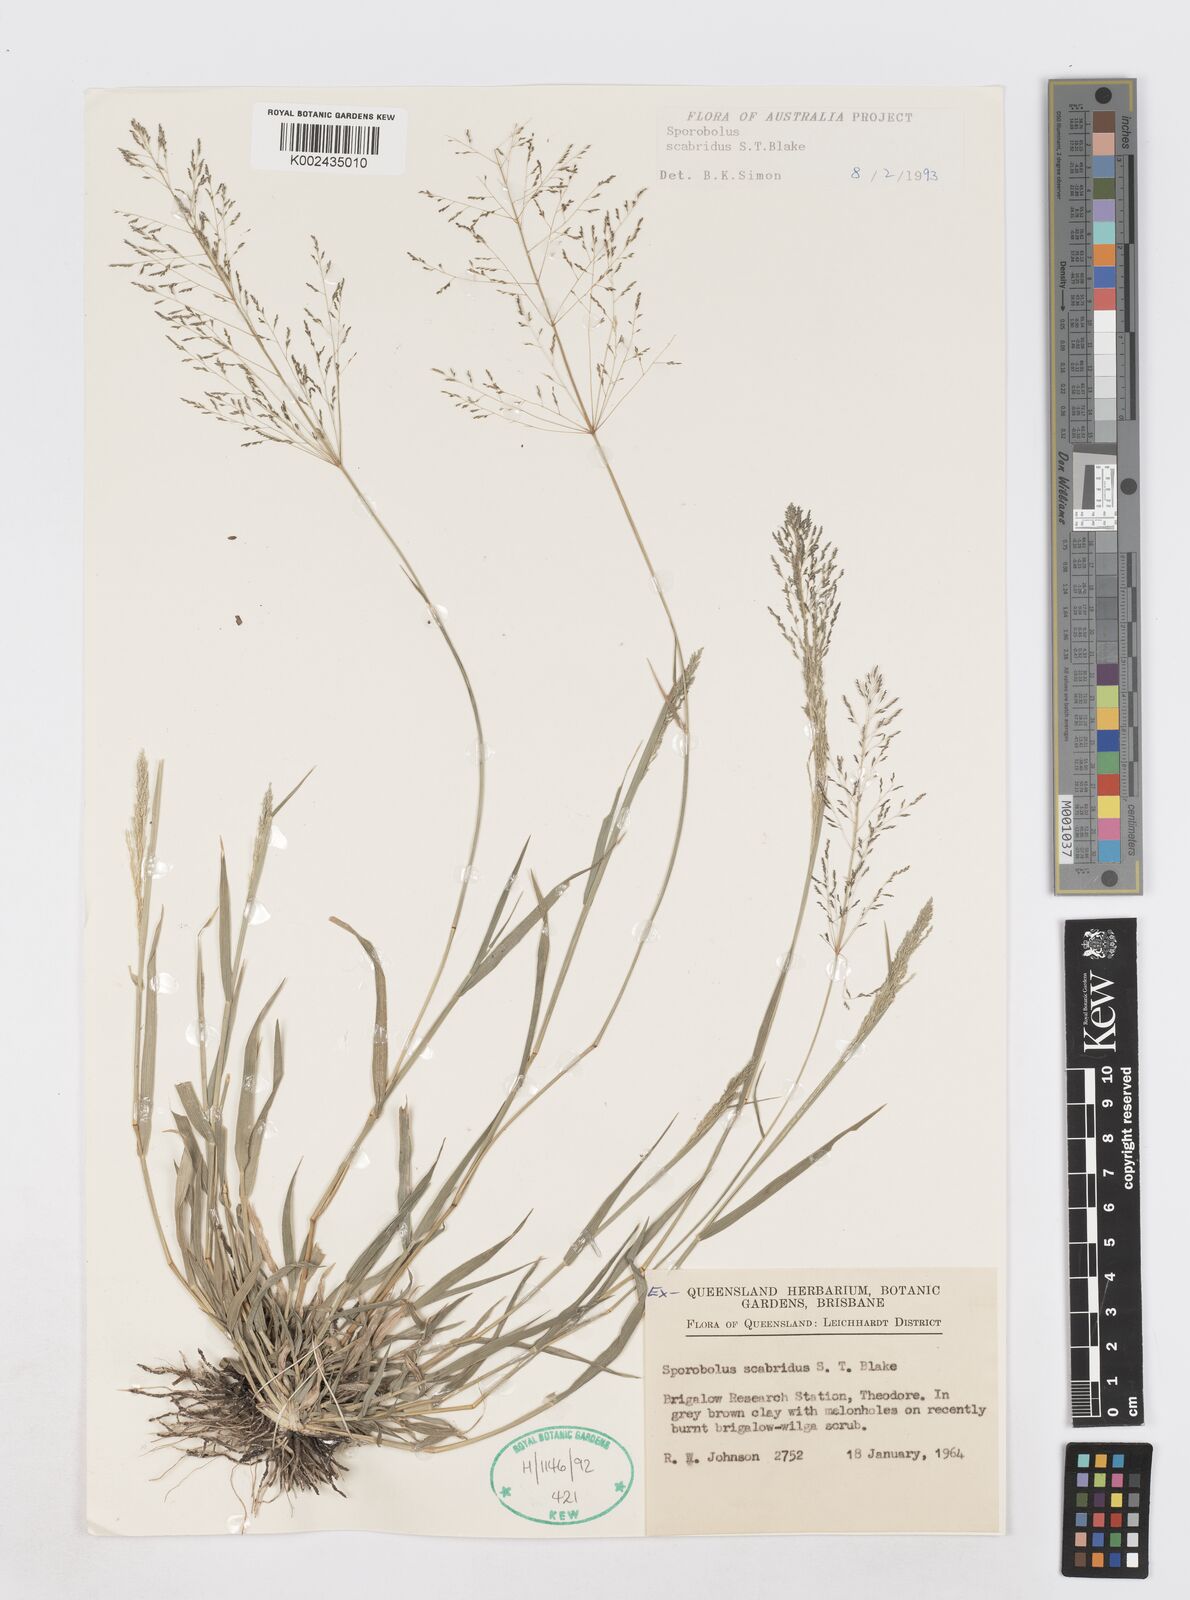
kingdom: Plantae
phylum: Tracheophyta
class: Liliopsida
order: Poales
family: Poaceae
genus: Sporobolus
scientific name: Sporobolus scabridus
